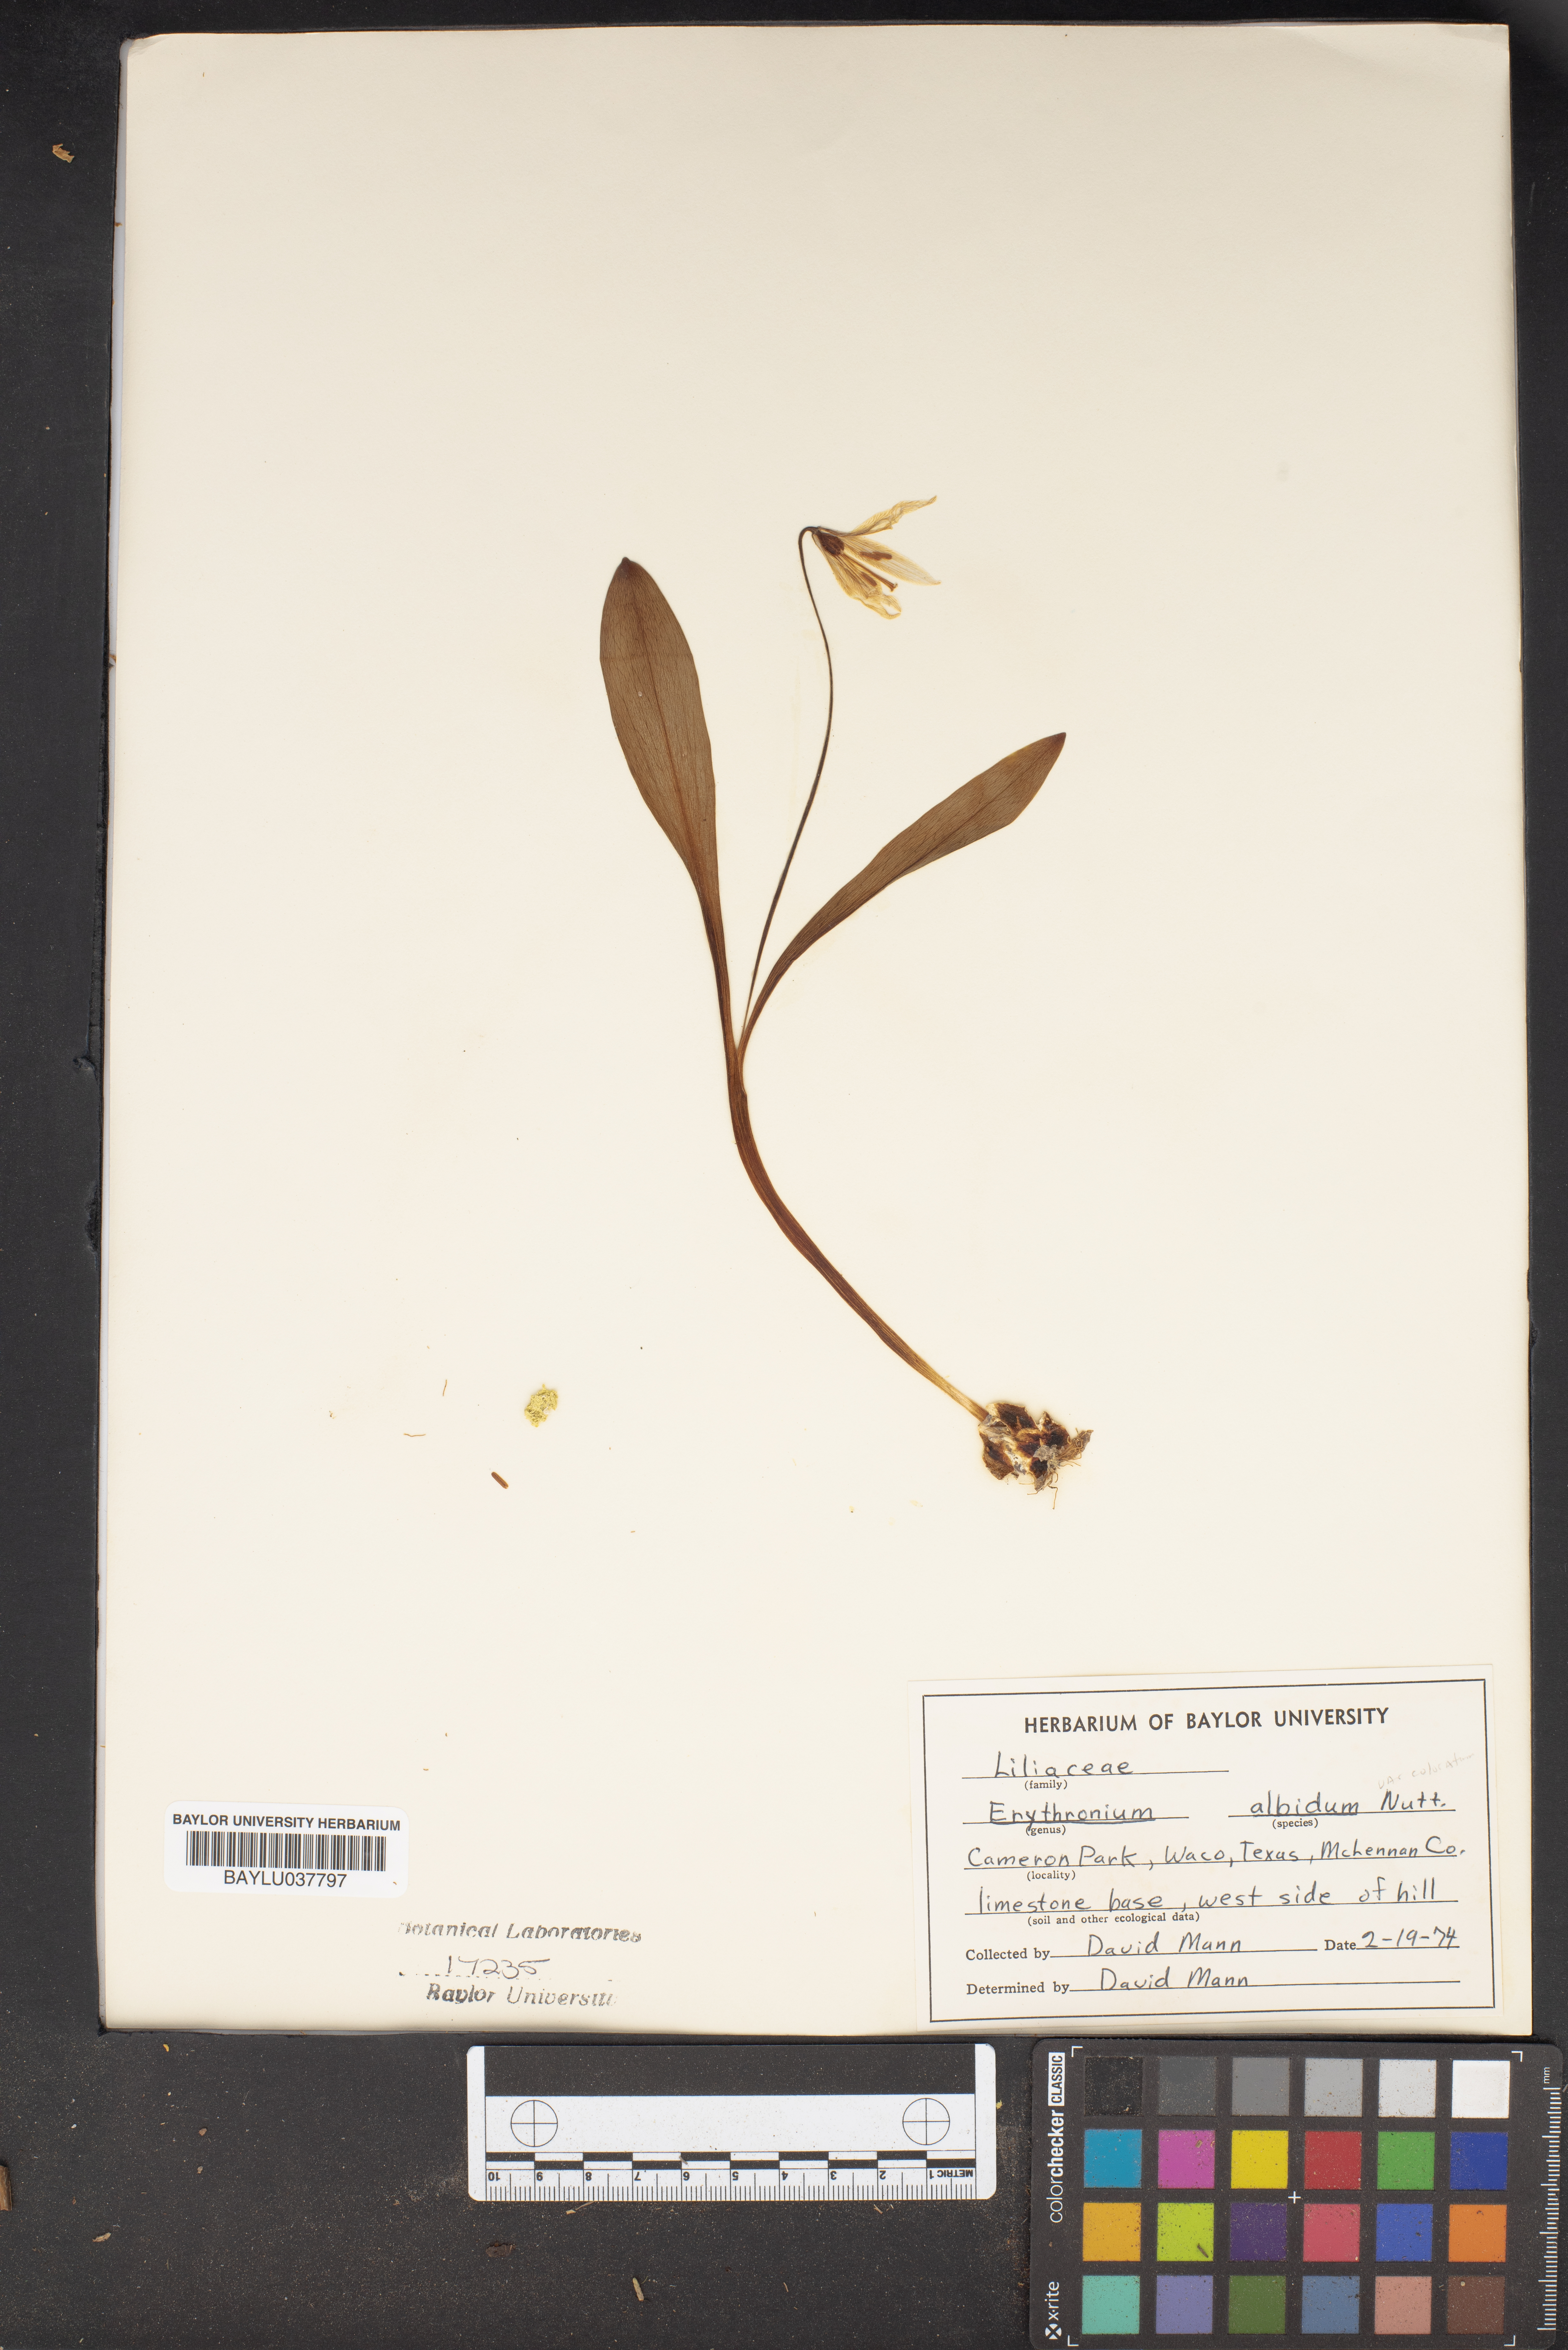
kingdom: Plantae
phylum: Tracheophyta
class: Liliopsida
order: Liliales
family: Liliaceae
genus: Erythronium
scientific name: Erythronium albidum
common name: White trout-lily
